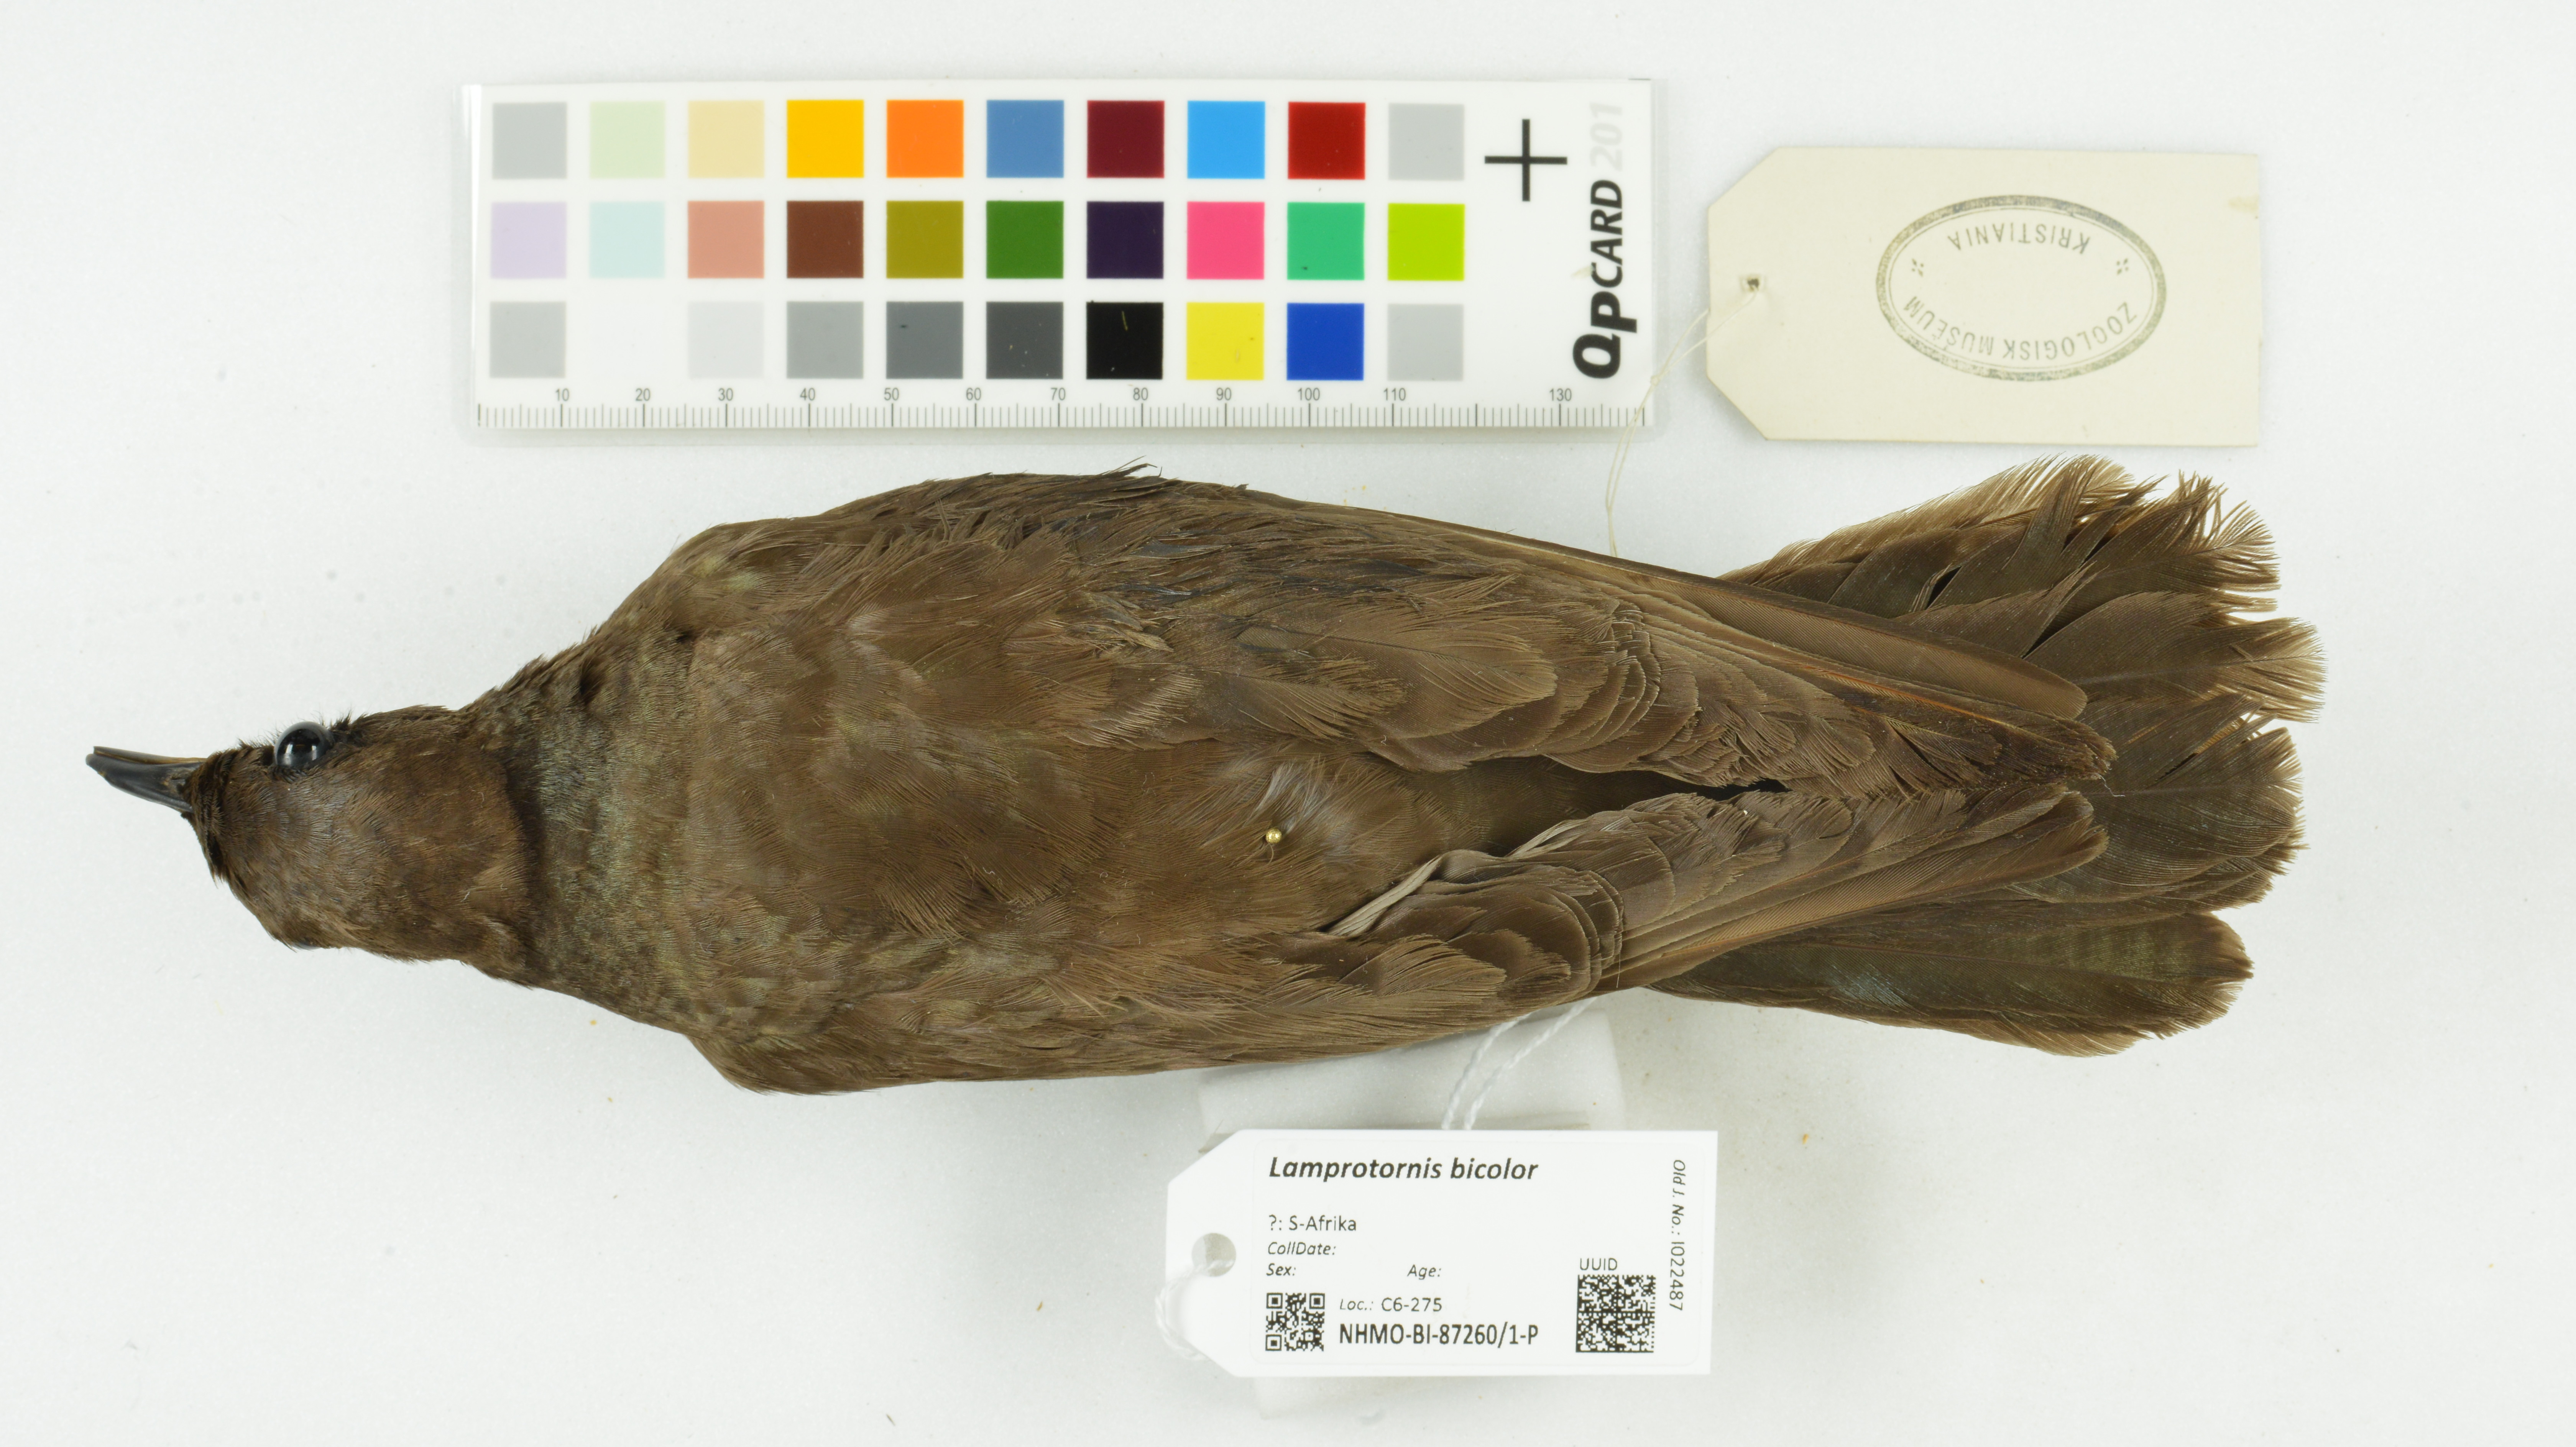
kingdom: Animalia
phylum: Chordata
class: Aves
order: Passeriformes
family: Sturnidae
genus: Lamprotornis
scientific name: Lamprotornis bicolor
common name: Pied starling
